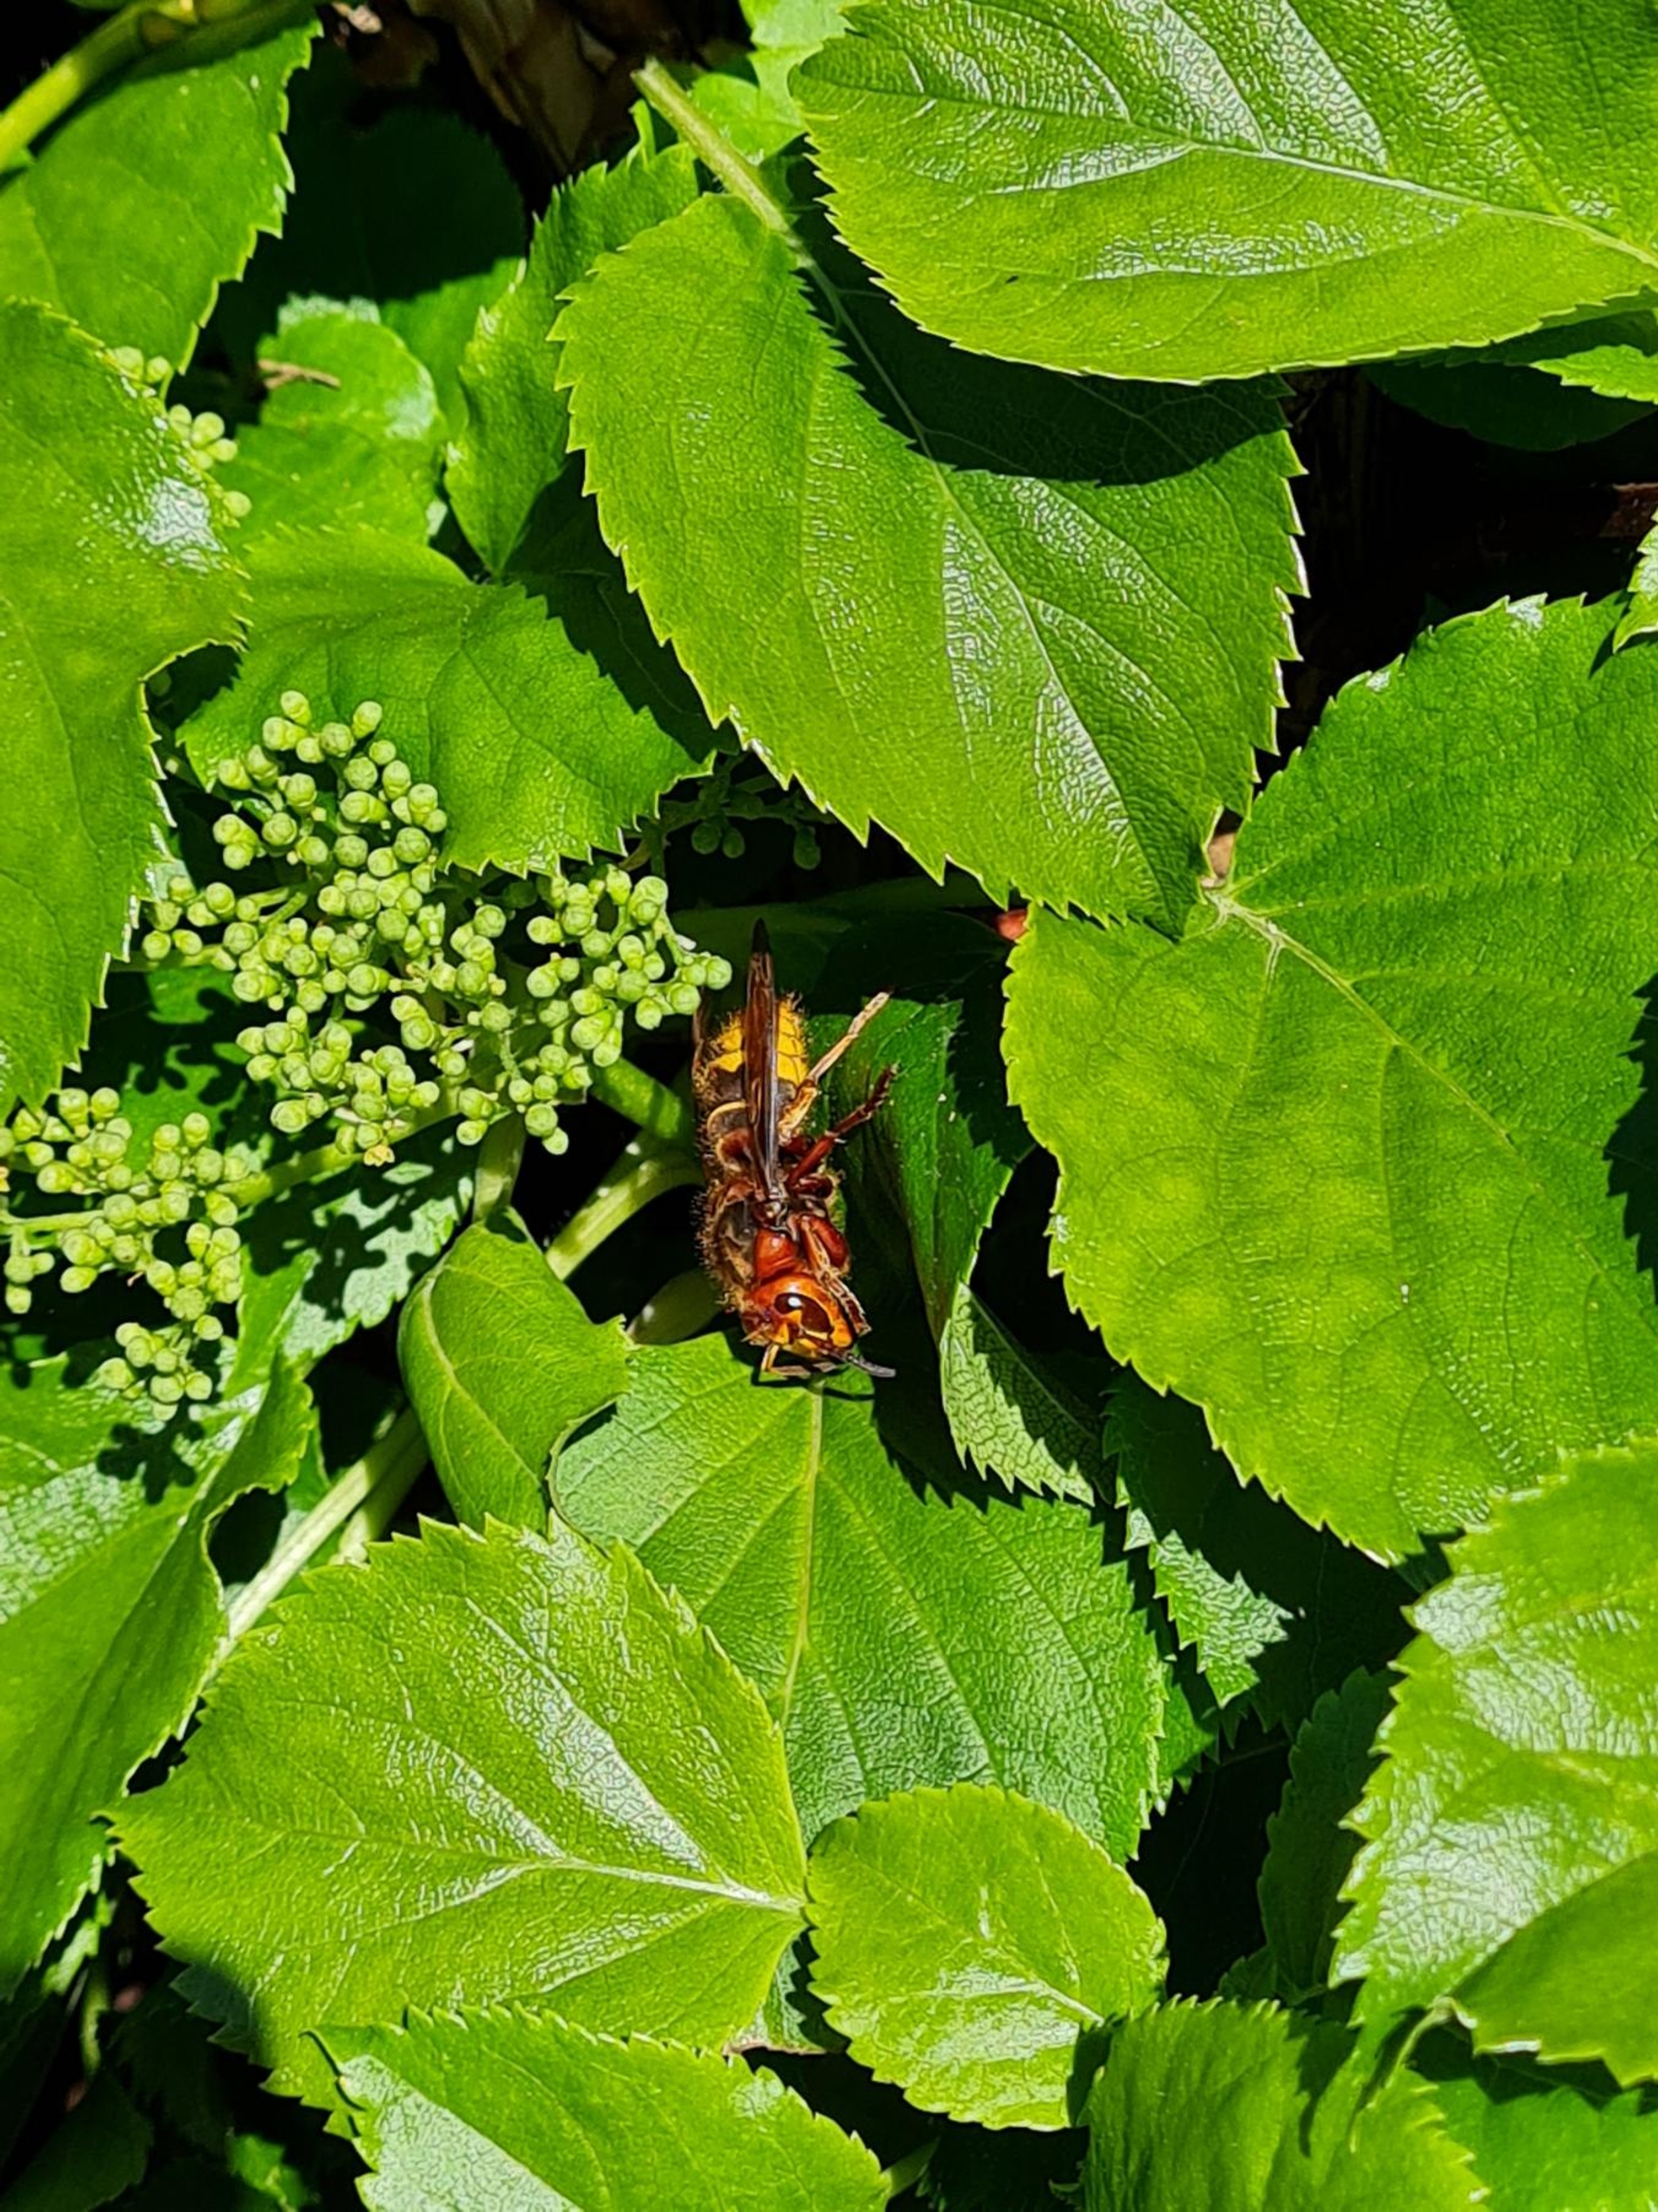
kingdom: Animalia
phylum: Arthropoda
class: Insecta
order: Hymenoptera
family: Vespidae
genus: Vespa
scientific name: Vespa crabro
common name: Stor gedehams
